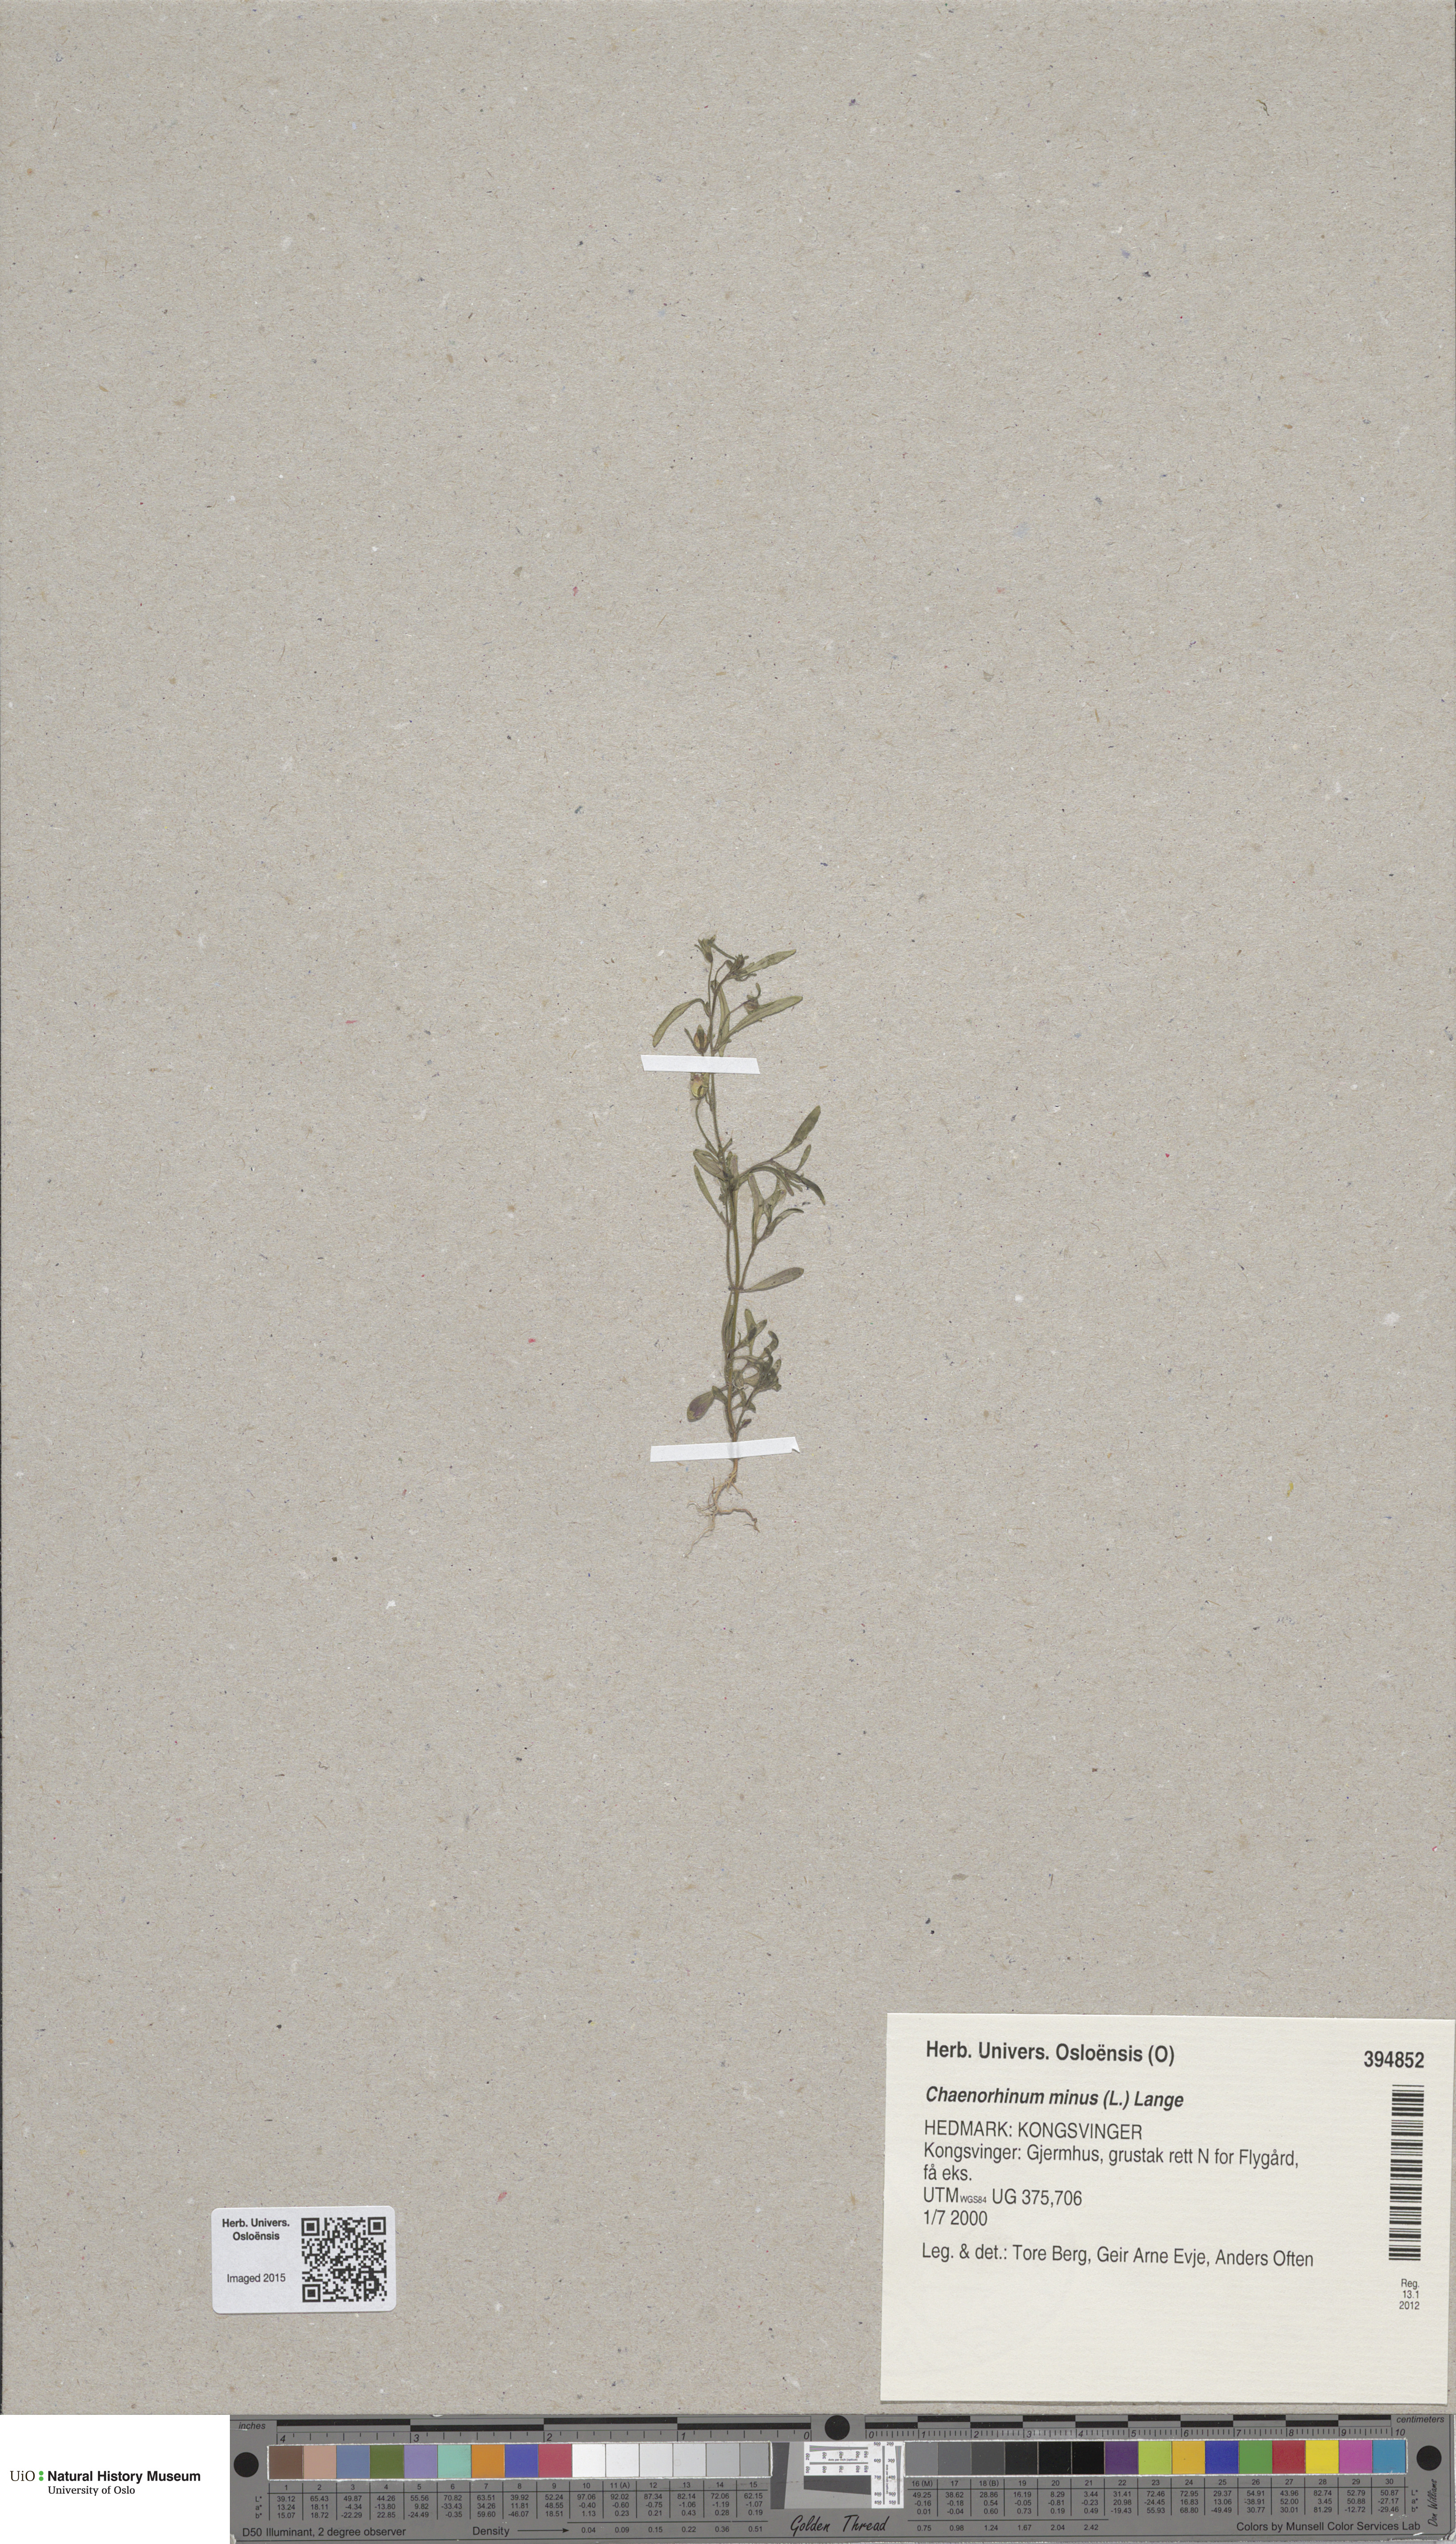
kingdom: Plantae
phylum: Tracheophyta
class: Magnoliopsida
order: Lamiales
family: Plantaginaceae
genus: Chaenorhinum
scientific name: Chaenorhinum minus
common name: Dwarf snapdragon
